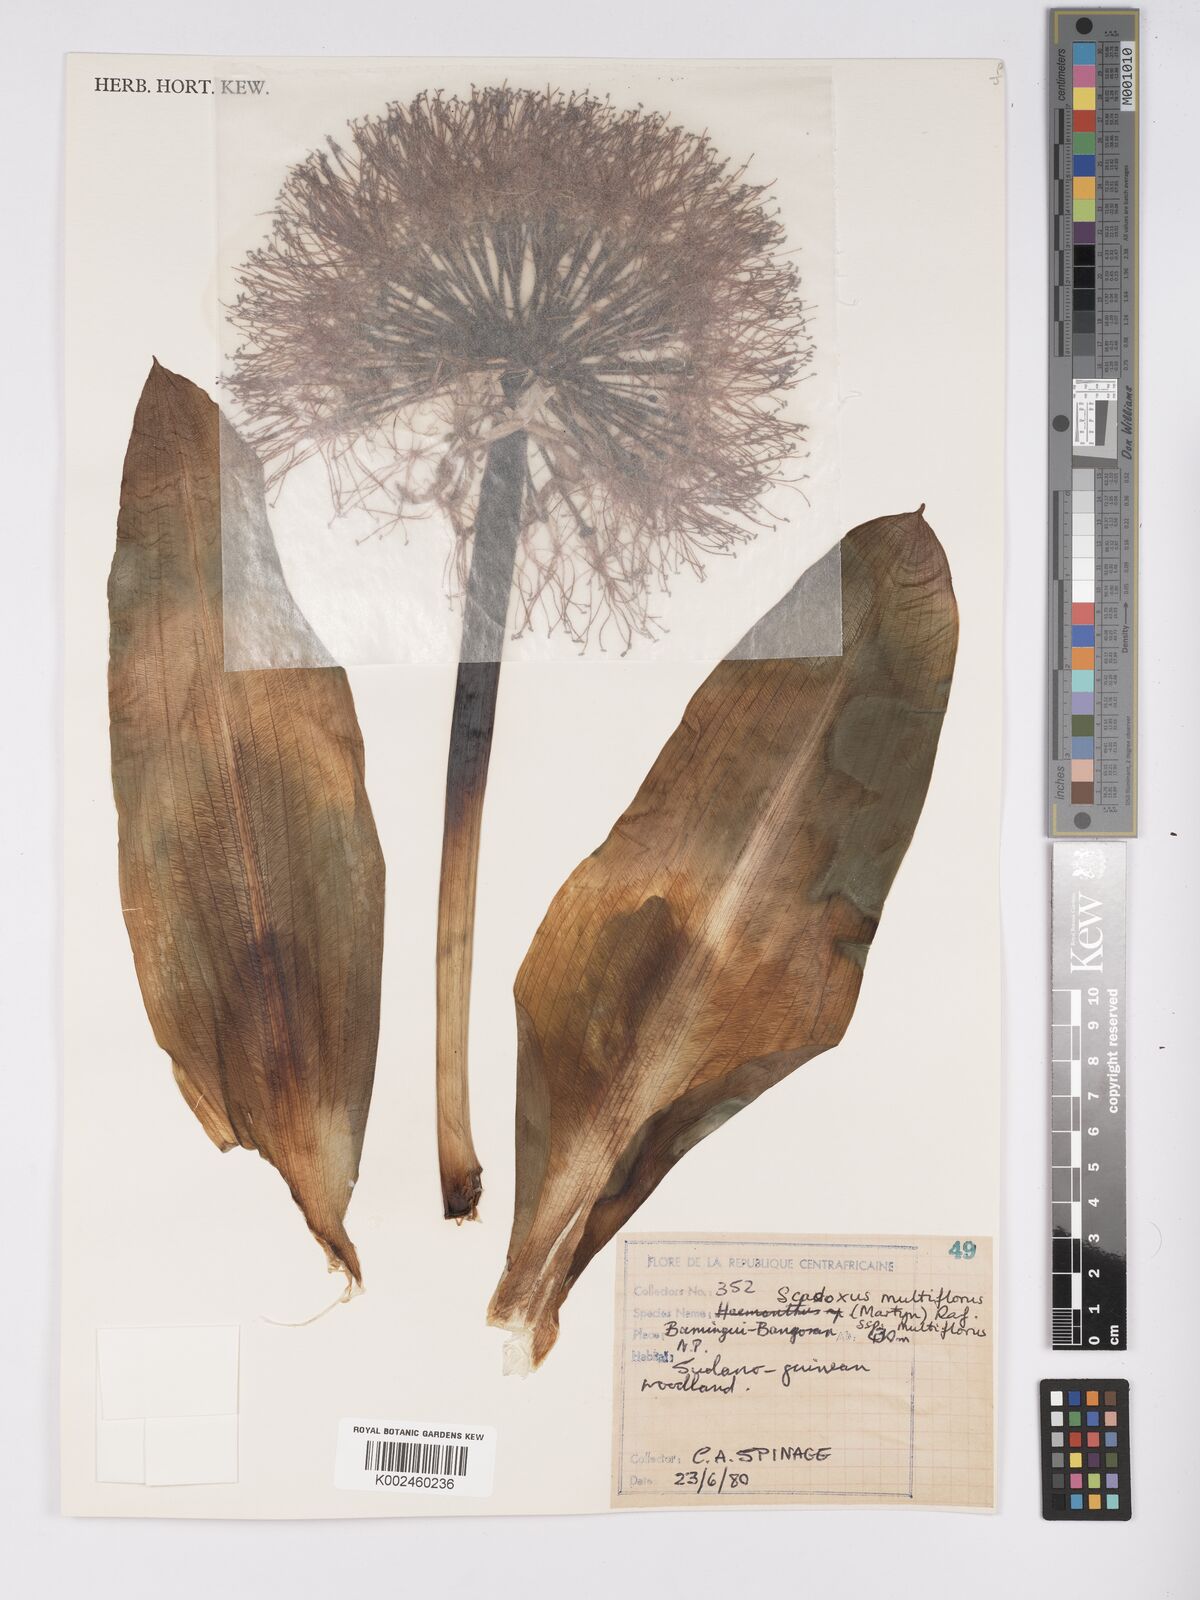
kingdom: Plantae
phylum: Tracheophyta
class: Liliopsida
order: Asparagales
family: Amaryllidaceae
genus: Scadoxus
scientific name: Scadoxus multiflorus
